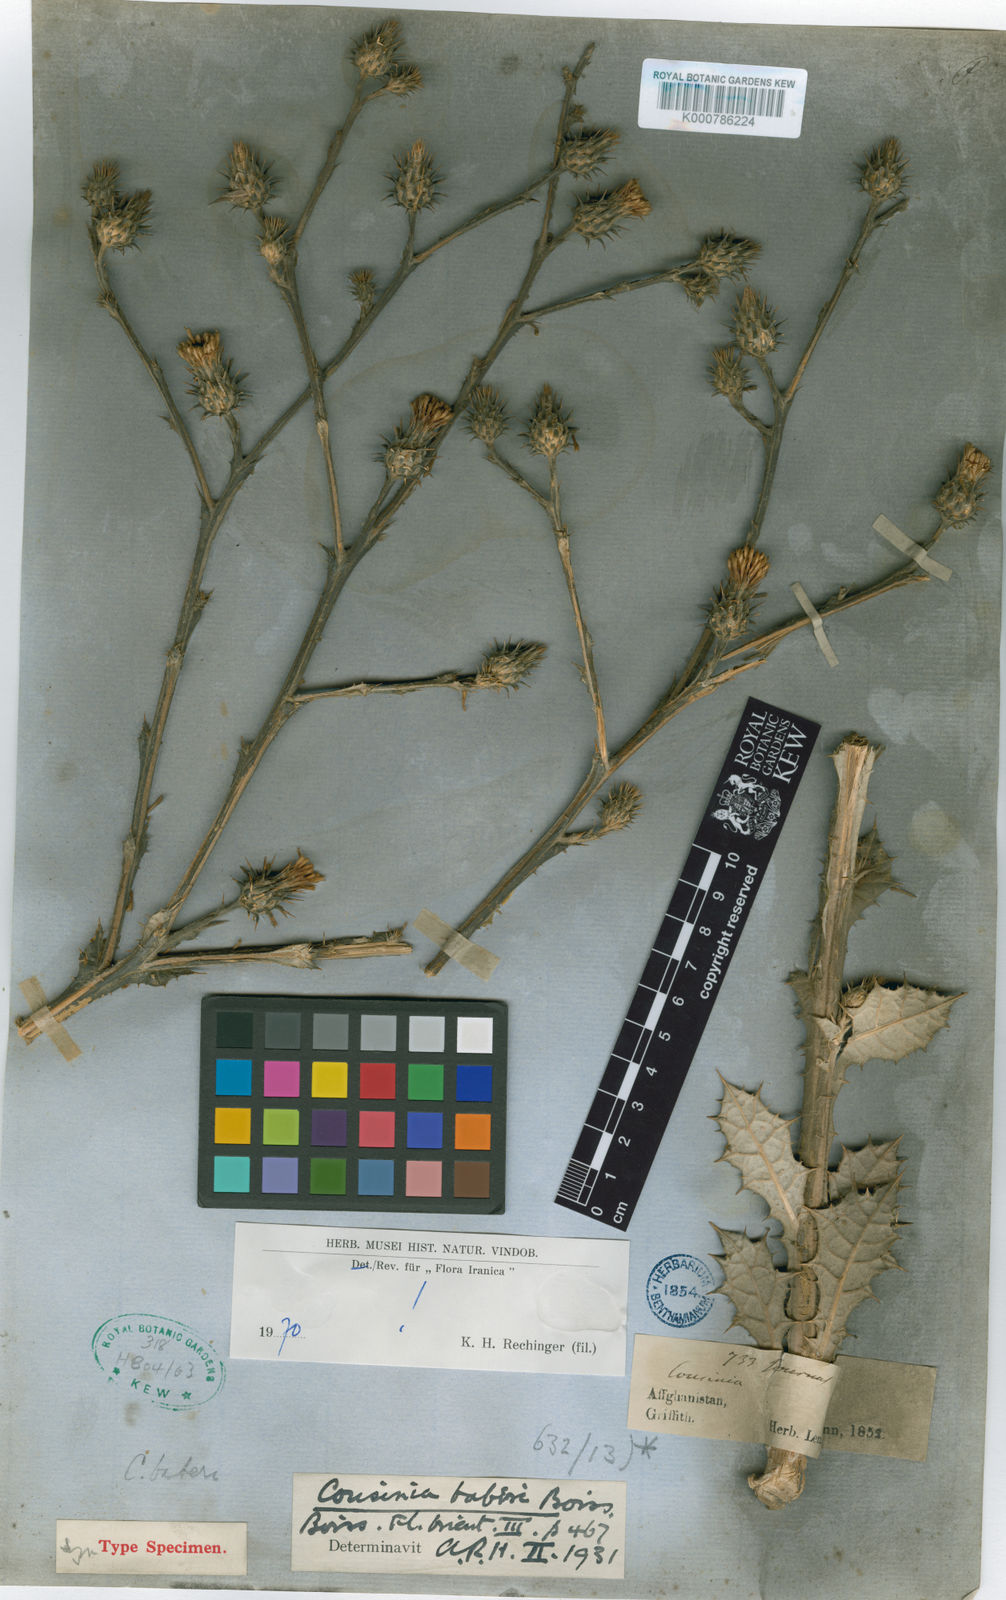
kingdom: Plantae
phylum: Tracheophyta
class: Magnoliopsida
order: Asterales
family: Asteraceae
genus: Cousinia
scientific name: Cousinia baberi
